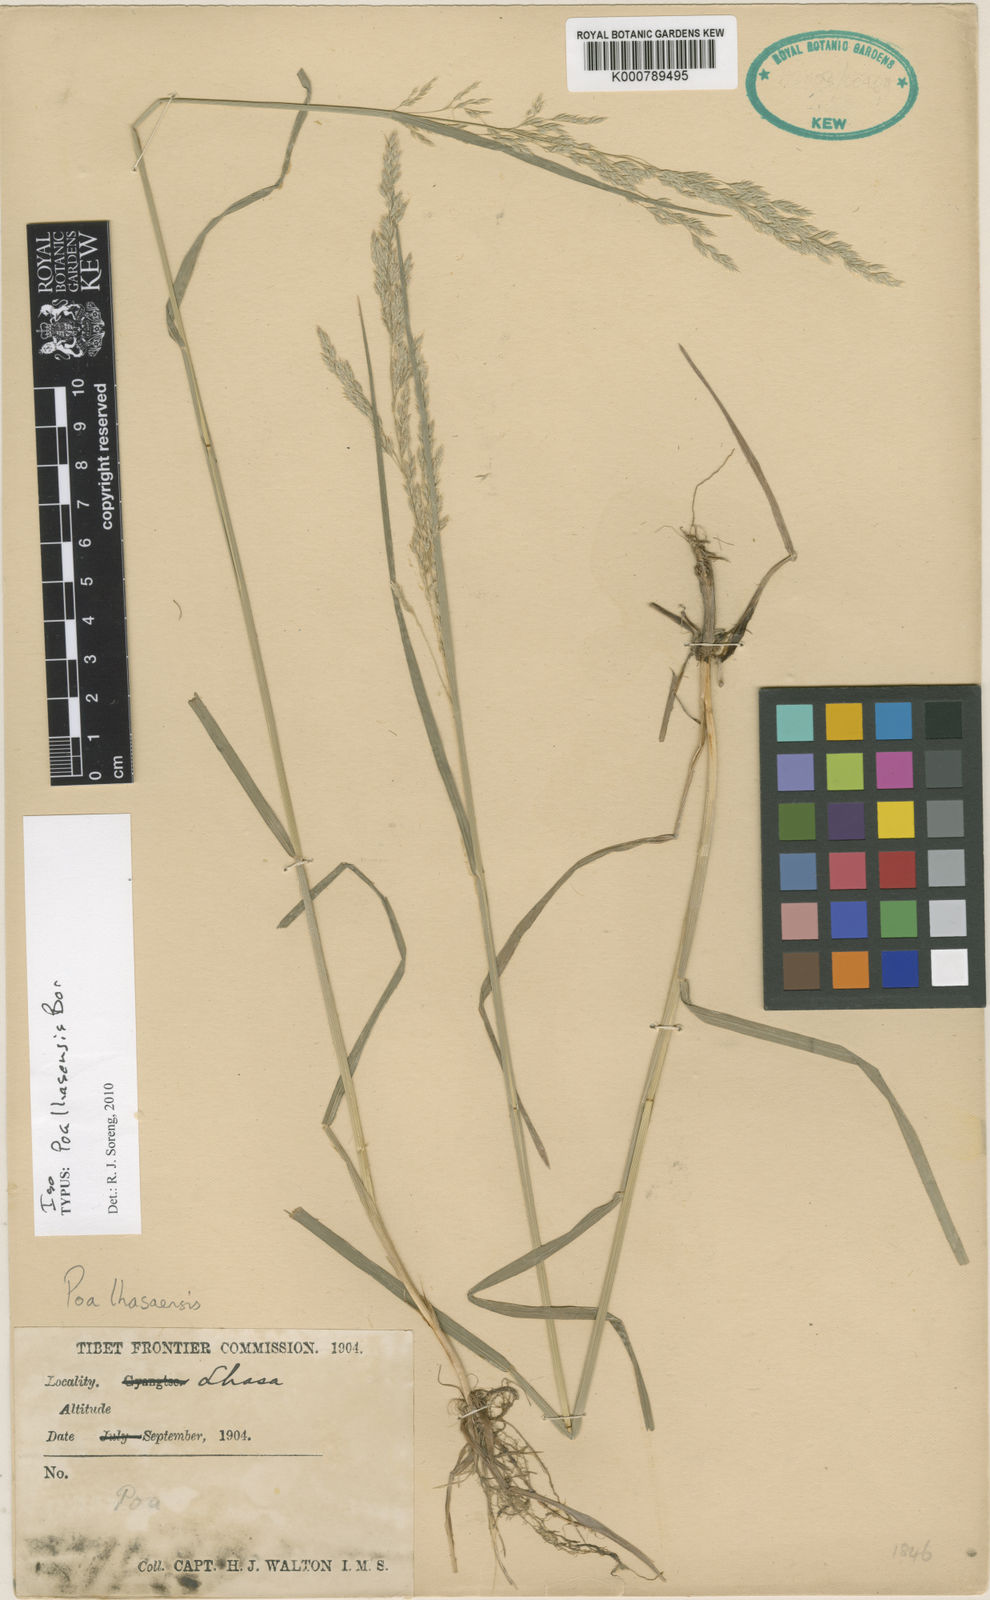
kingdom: Plantae
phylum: Tracheophyta
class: Liliopsida
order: Poales
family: Poaceae
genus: Poa
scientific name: Poa lhasaensis
